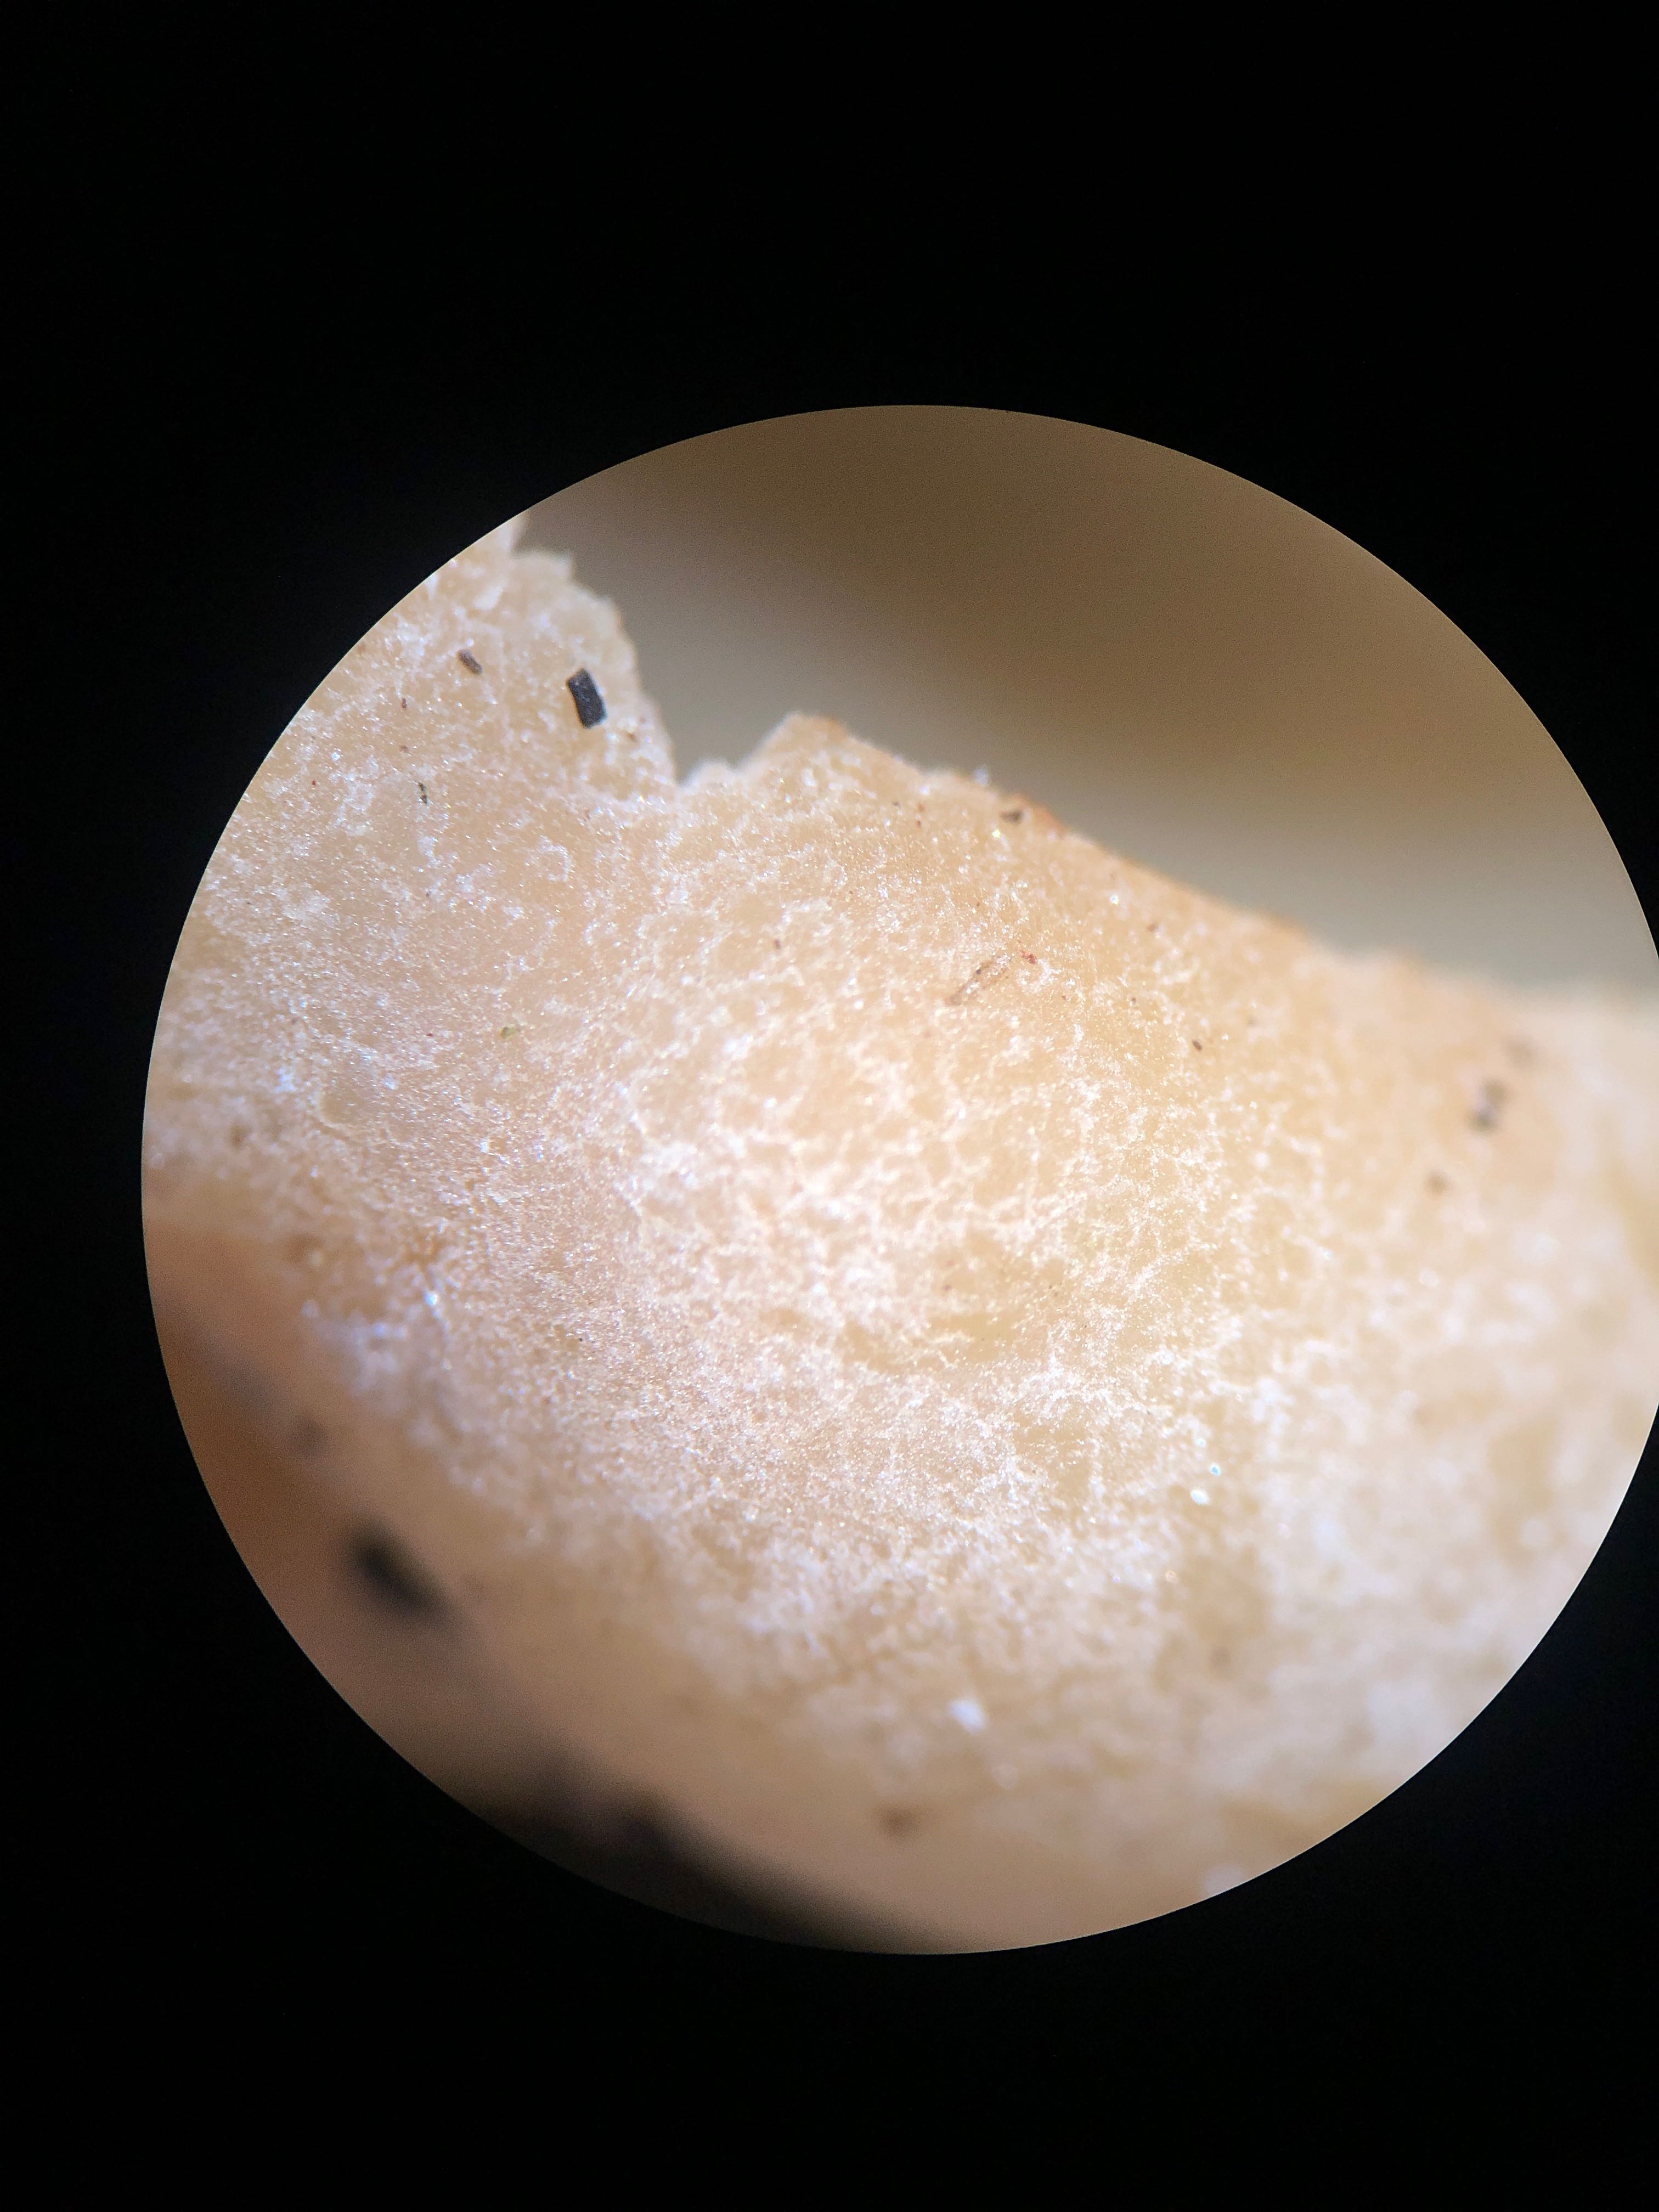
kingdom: Fungi
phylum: Ascomycota
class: Pezizomycetes
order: Pezizales
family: Pezizaceae
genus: Peziza
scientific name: Peziza arvernensis
